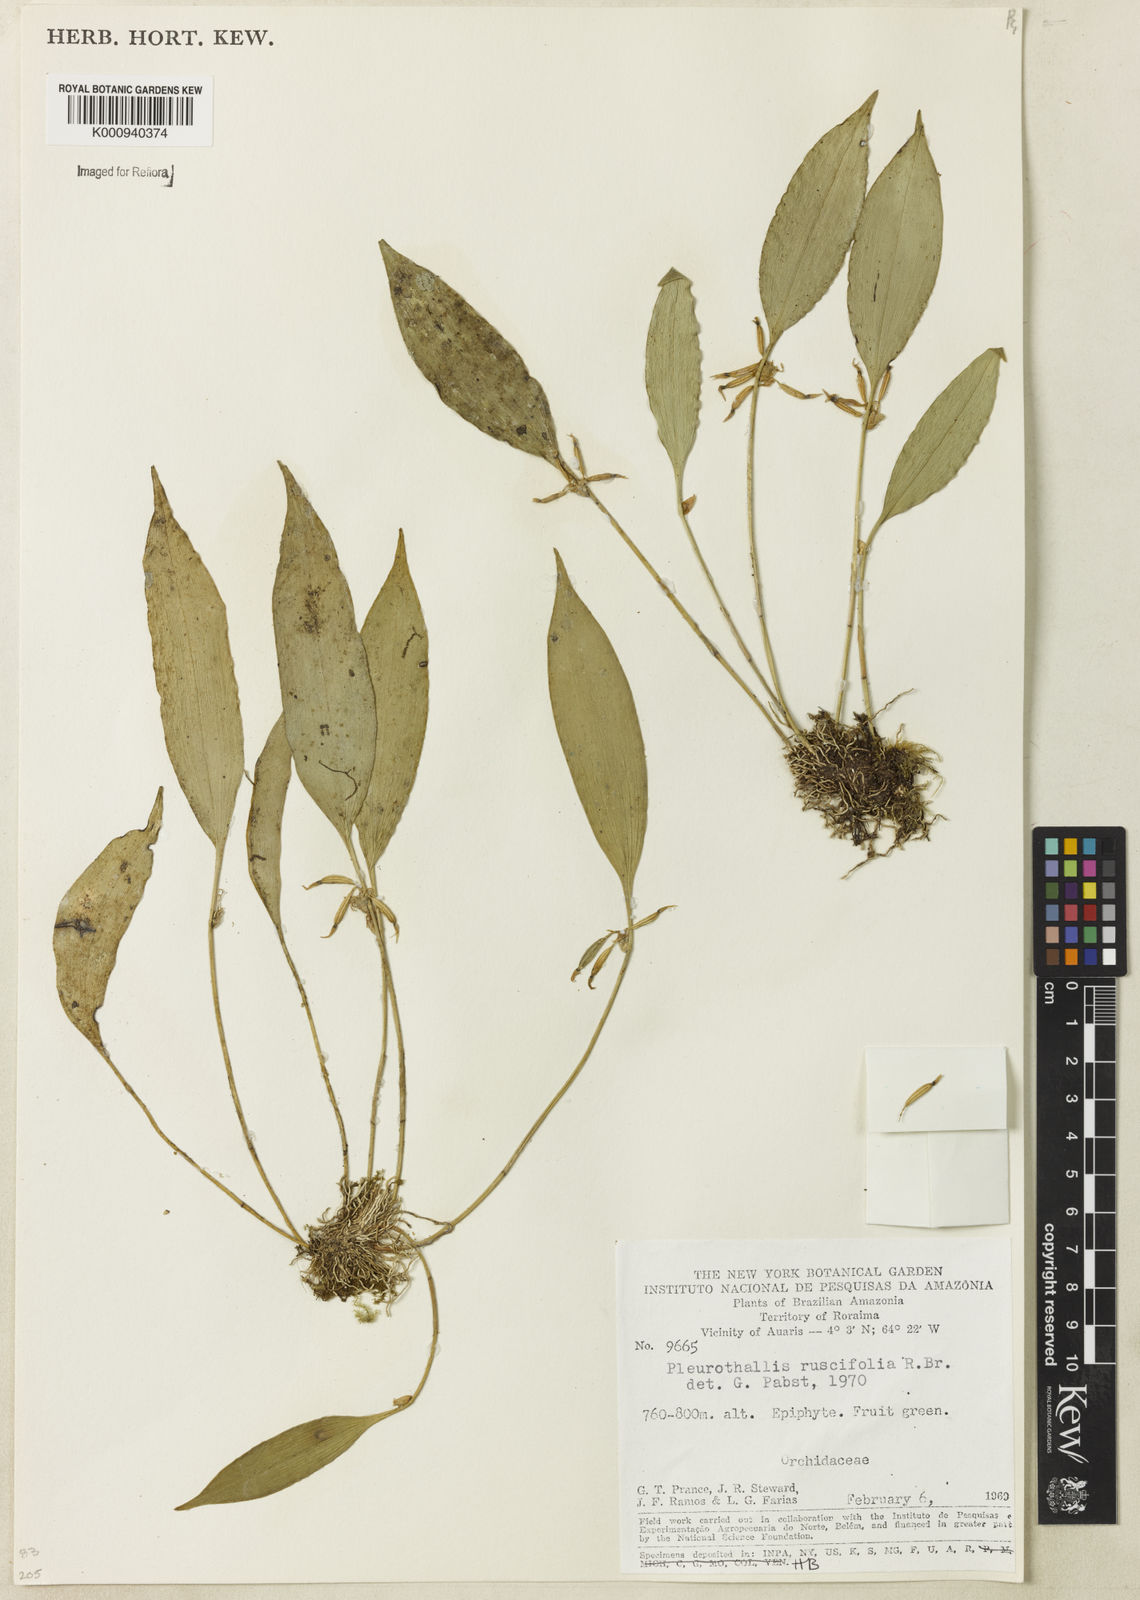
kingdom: Plantae
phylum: Tracheophyta
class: Liliopsida
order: Asparagales
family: Orchidaceae
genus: Pleurothallis
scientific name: Pleurothallis ruscifolia
